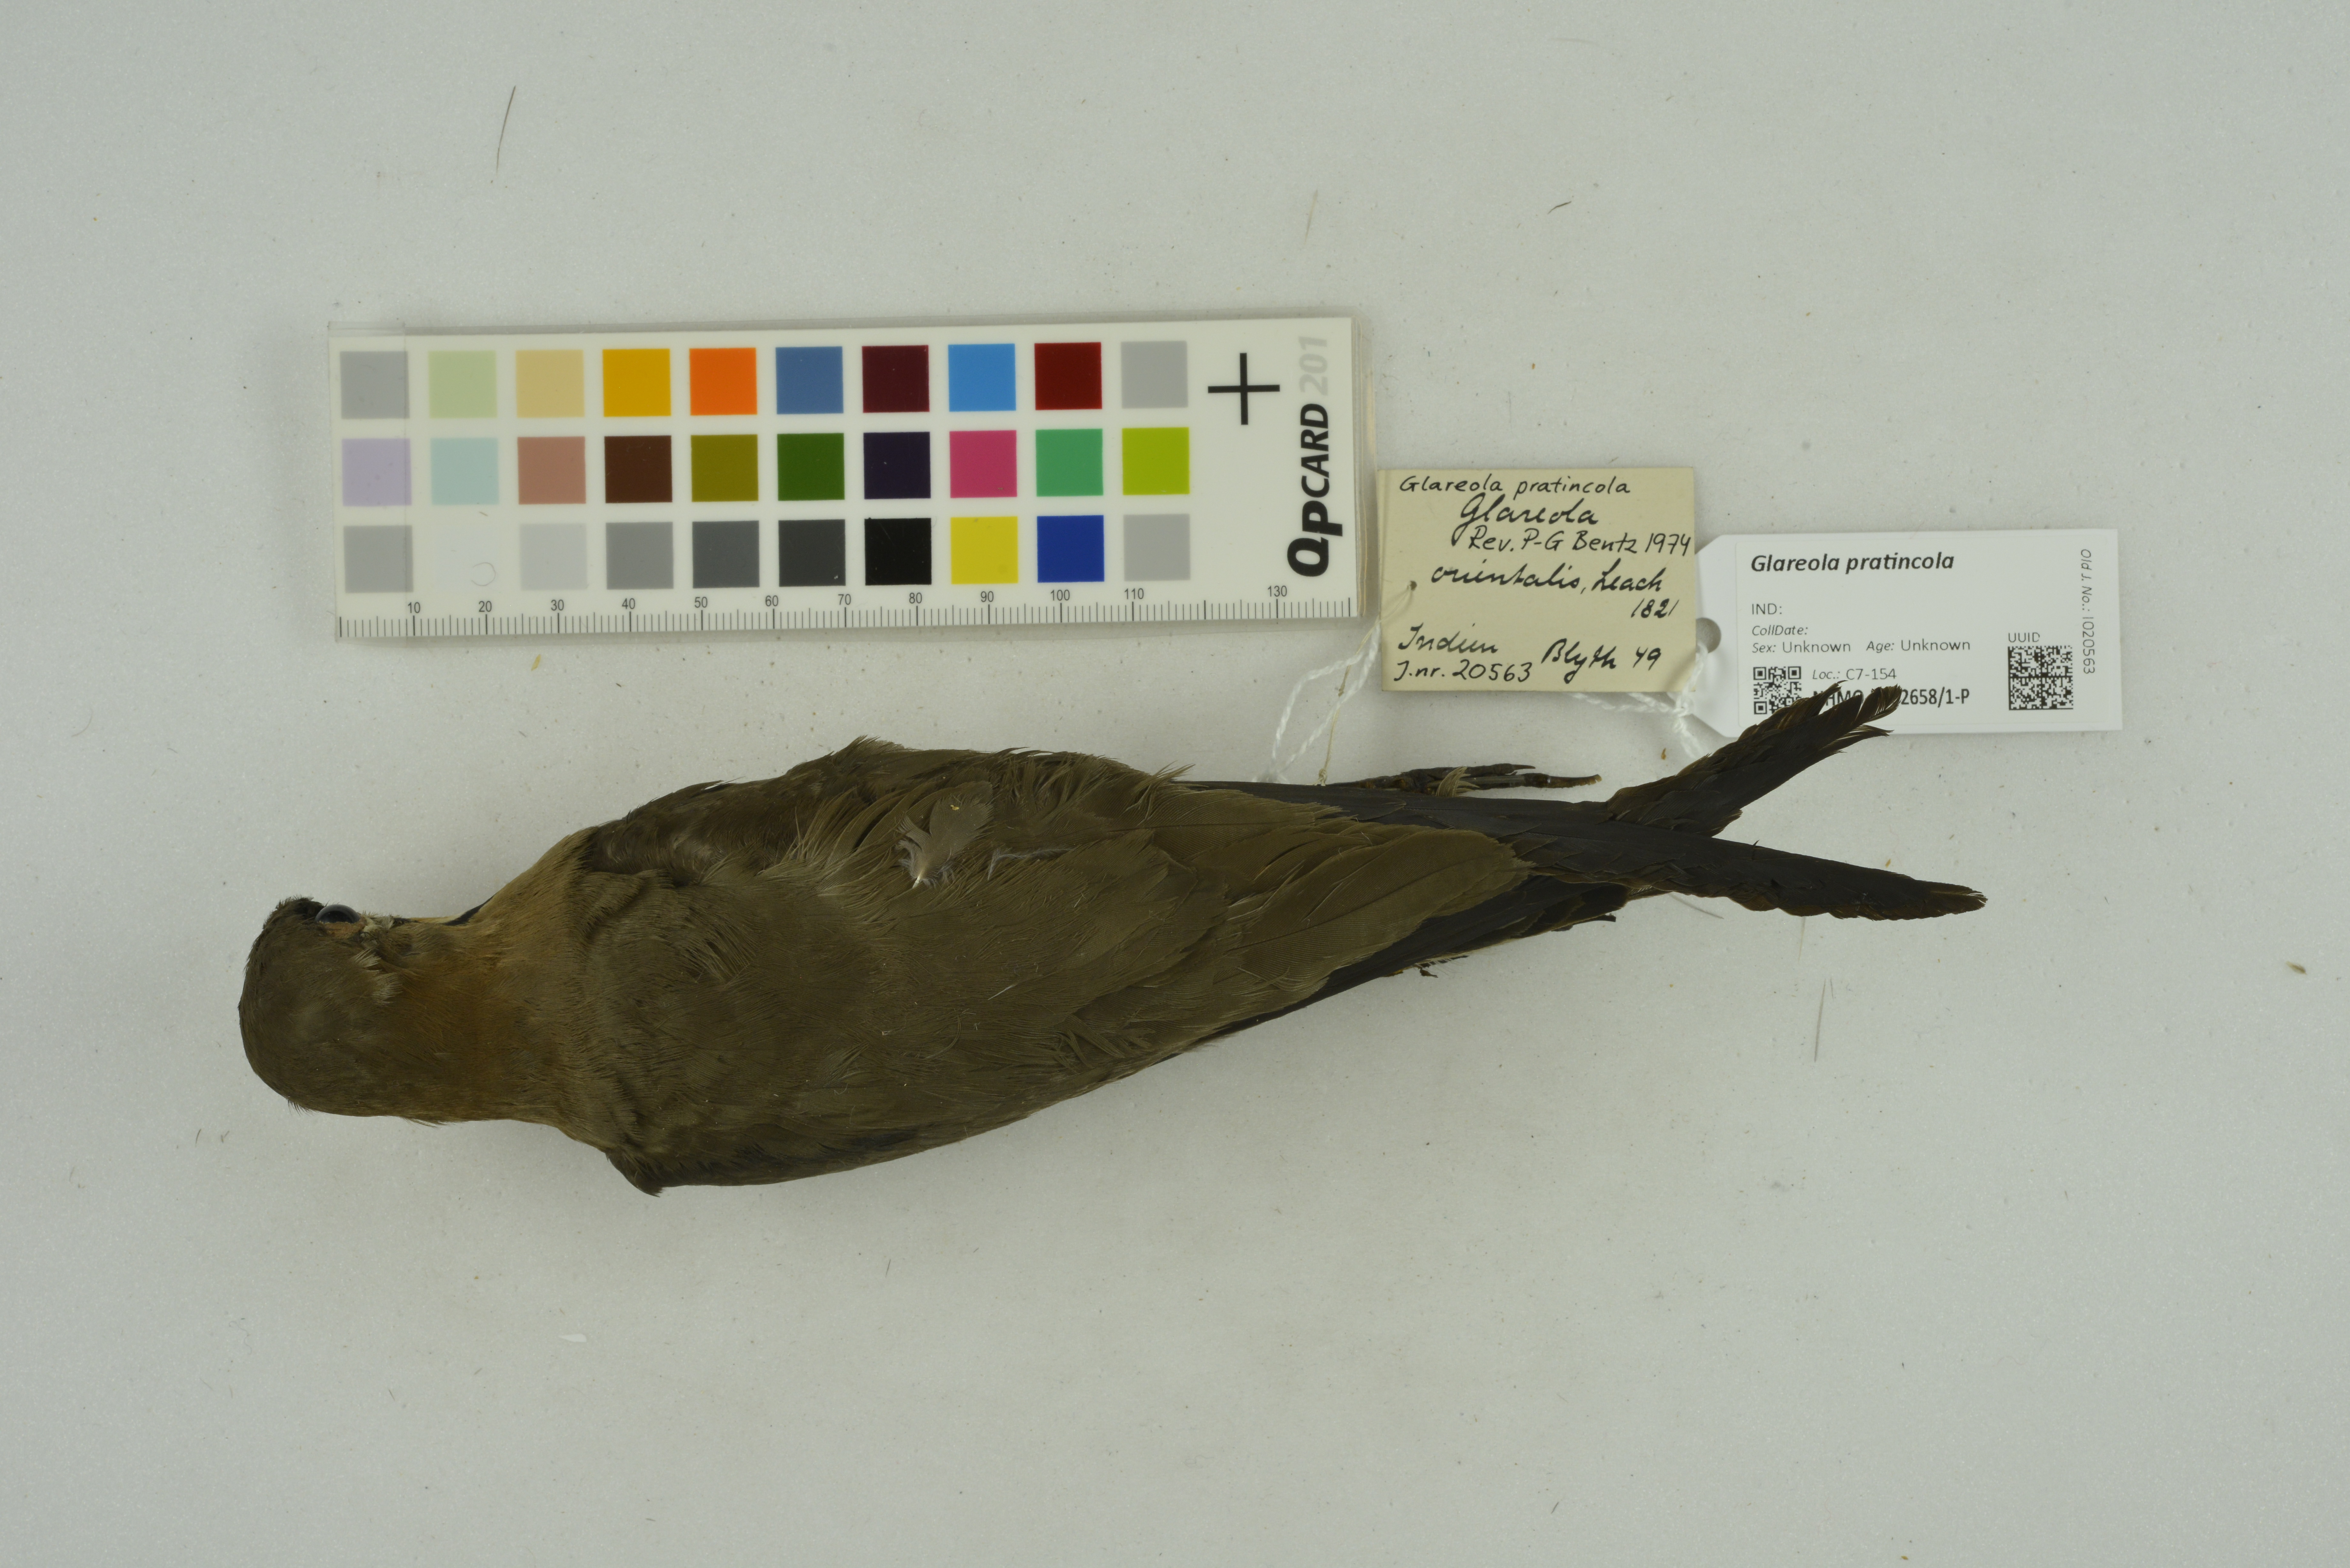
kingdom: Animalia
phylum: Chordata
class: Aves
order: Charadriiformes
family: Glareolidae
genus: Glareola
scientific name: Glareola pratincola
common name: Collared pratincole
